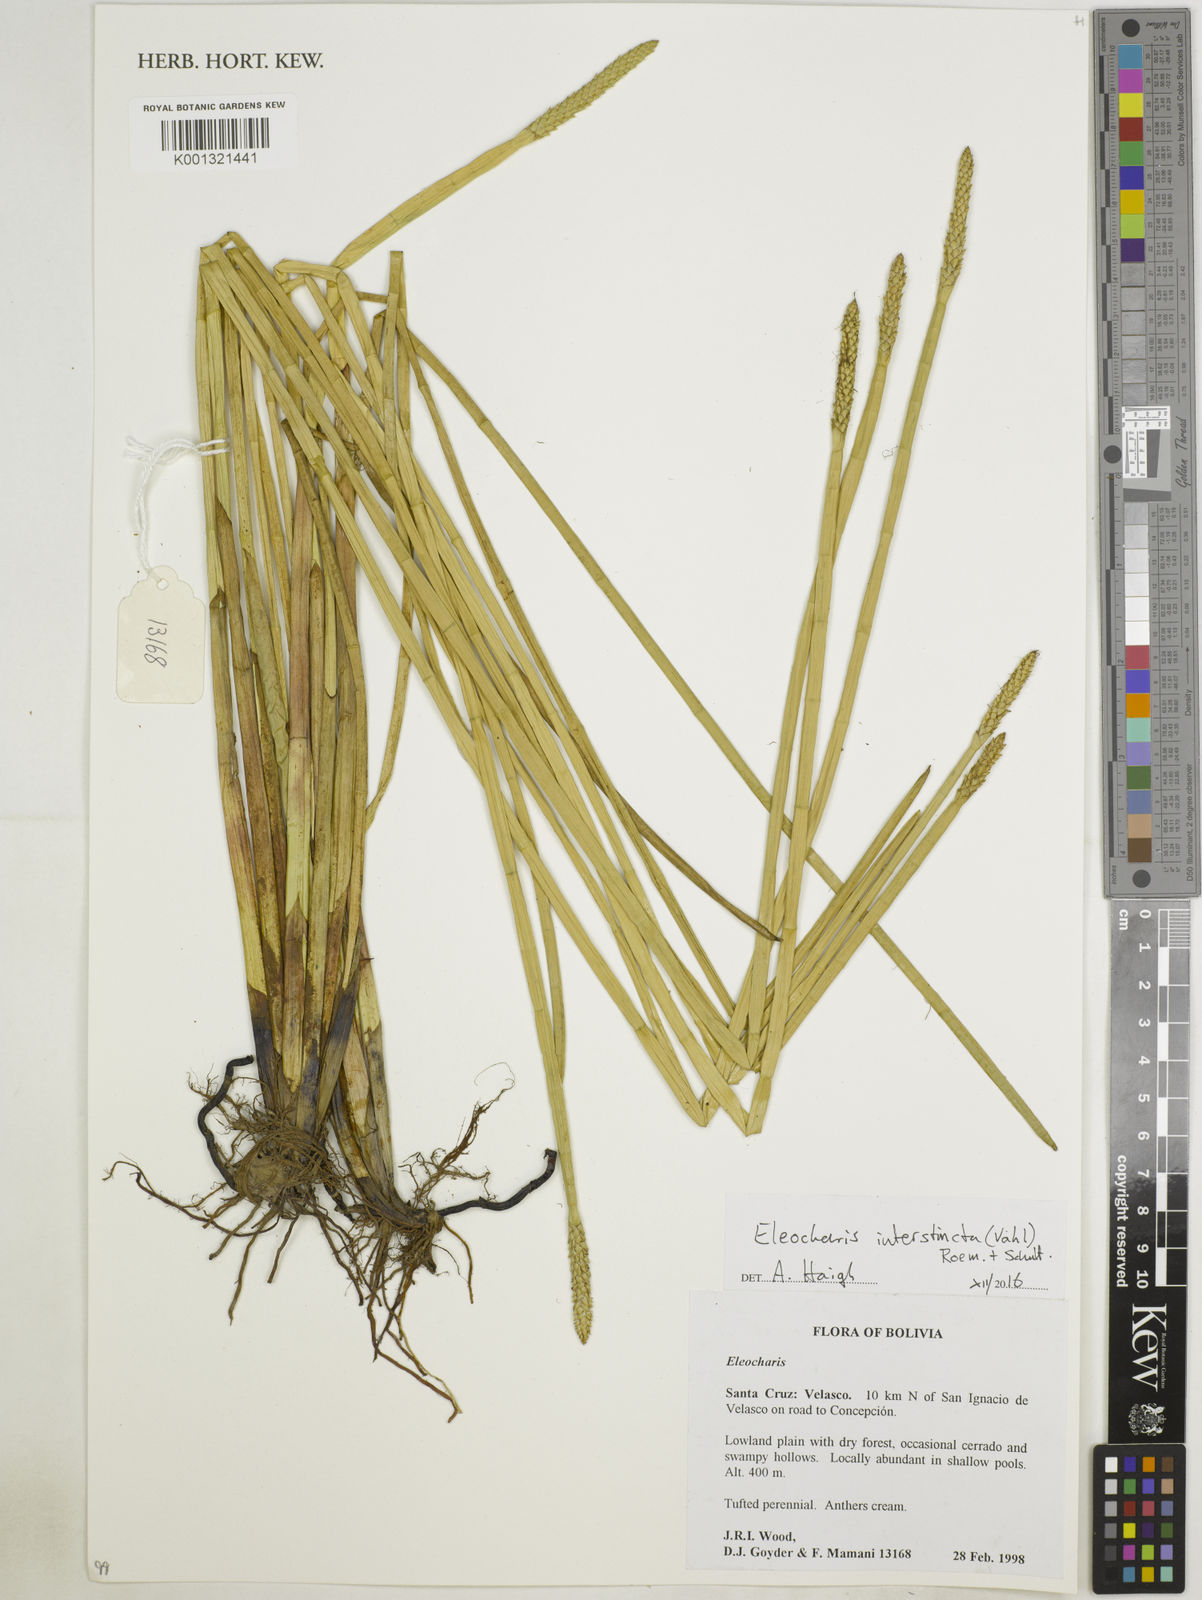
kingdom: Plantae
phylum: Tracheophyta
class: Liliopsida
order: Poales
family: Cyperaceae
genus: Eleocharis
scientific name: Eleocharis interstincta
